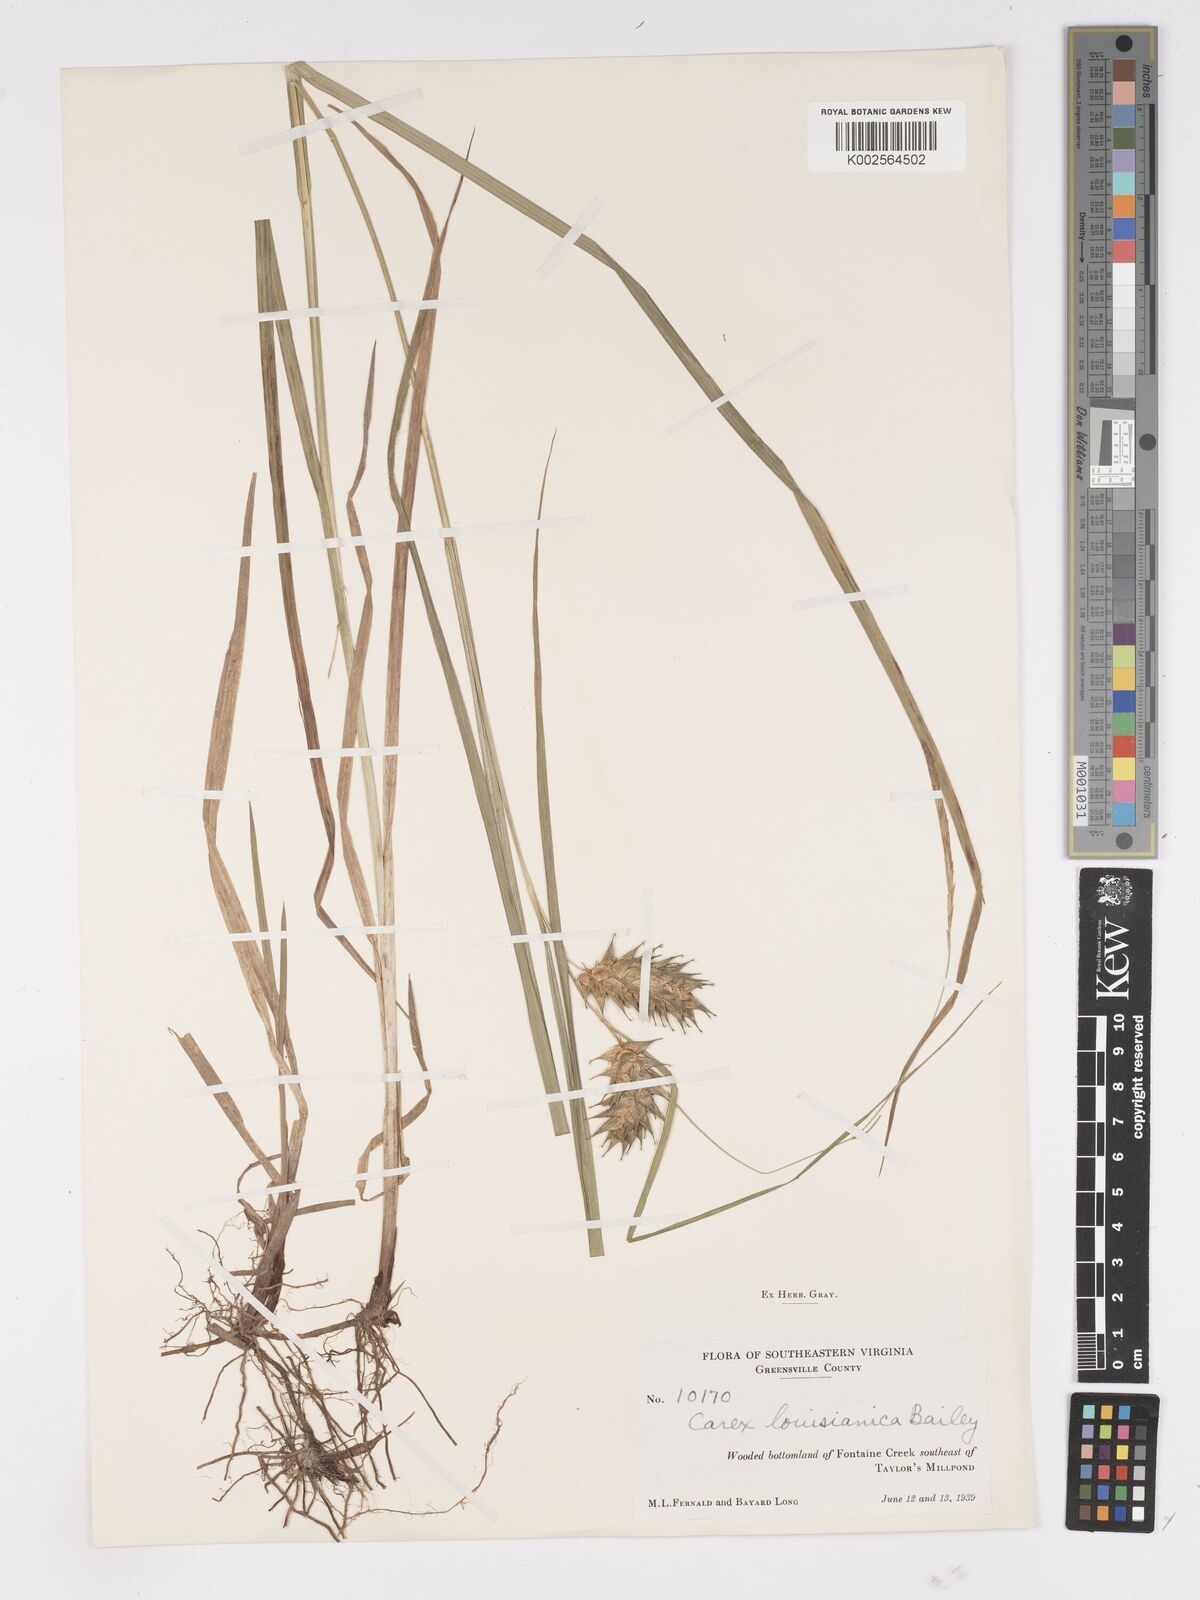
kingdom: Plantae
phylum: Tracheophyta
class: Liliopsida
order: Poales
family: Cyperaceae
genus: Carex
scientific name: Carex louisianica
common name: Louisiana sedge
